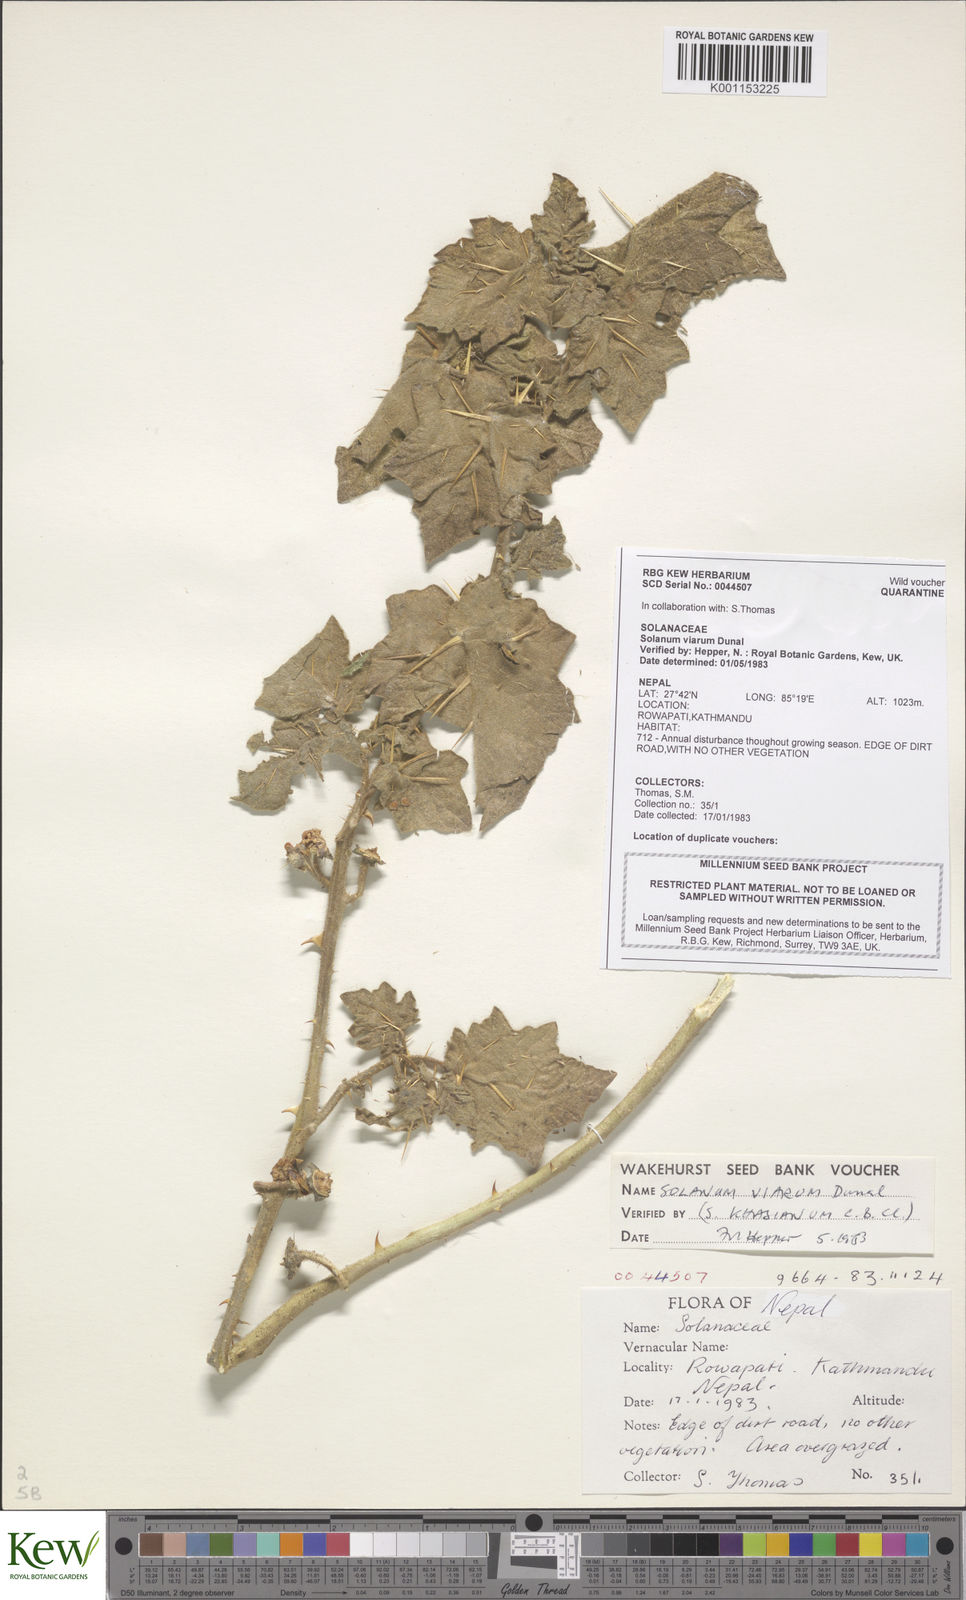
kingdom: Plantae
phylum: Tracheophyta
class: Magnoliopsida
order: Solanales
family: Solanaceae
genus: Solanum
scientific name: Solanum viarum
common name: Tropical soda apple
